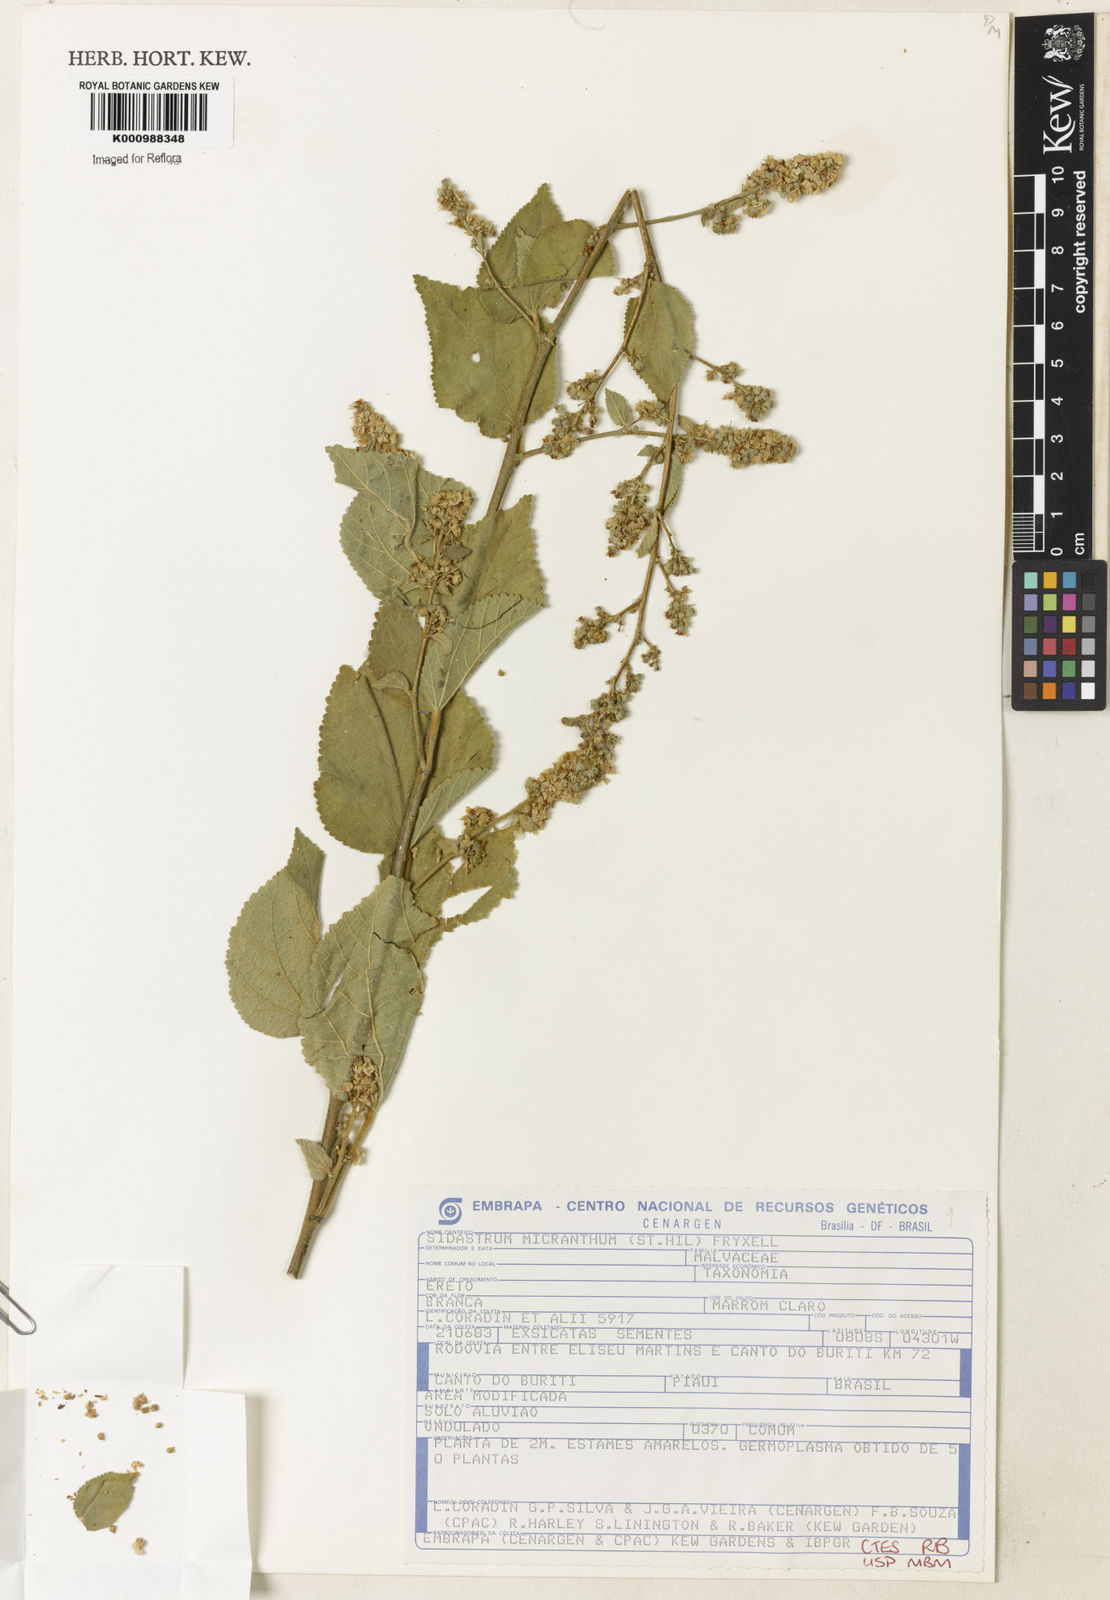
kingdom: Plantae
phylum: Tracheophyta
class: Magnoliopsida
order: Malvales
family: Malvaceae
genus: Sidastrum
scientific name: Sidastrum micranthum
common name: Dainty sandmallow
